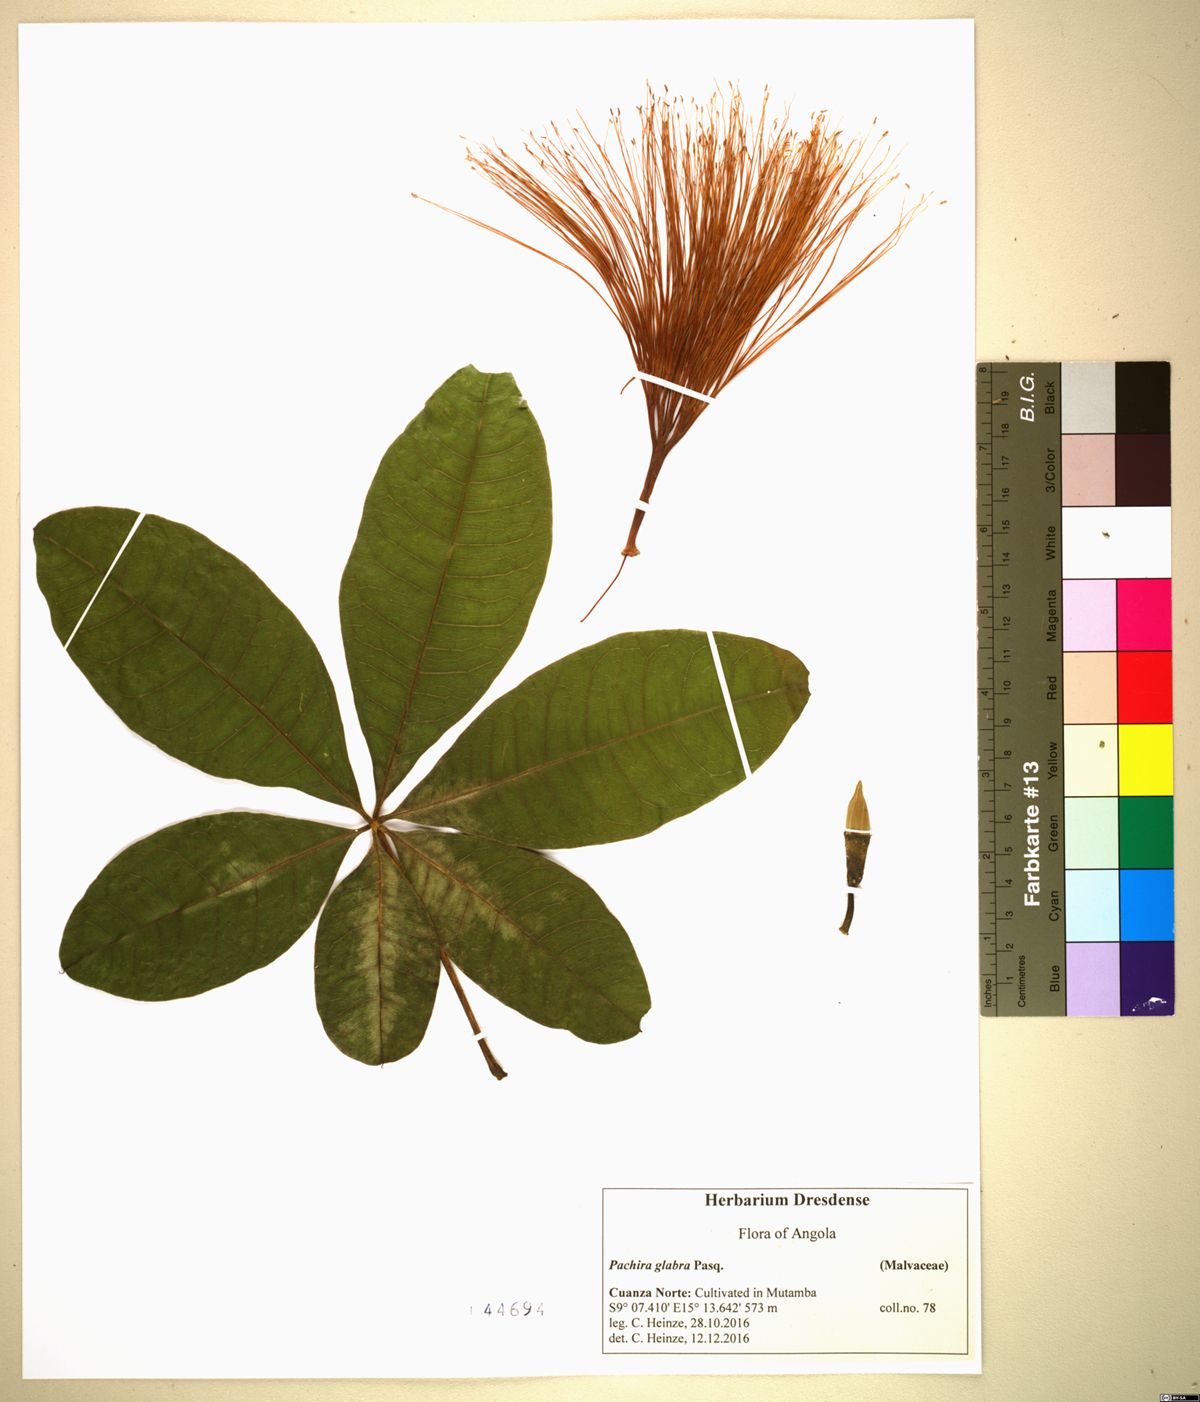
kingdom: Plantae
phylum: Tracheophyta
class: Magnoliopsida
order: Malvales
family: Malvaceae
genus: Pachira
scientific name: Pachira glabra
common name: Moneytree
